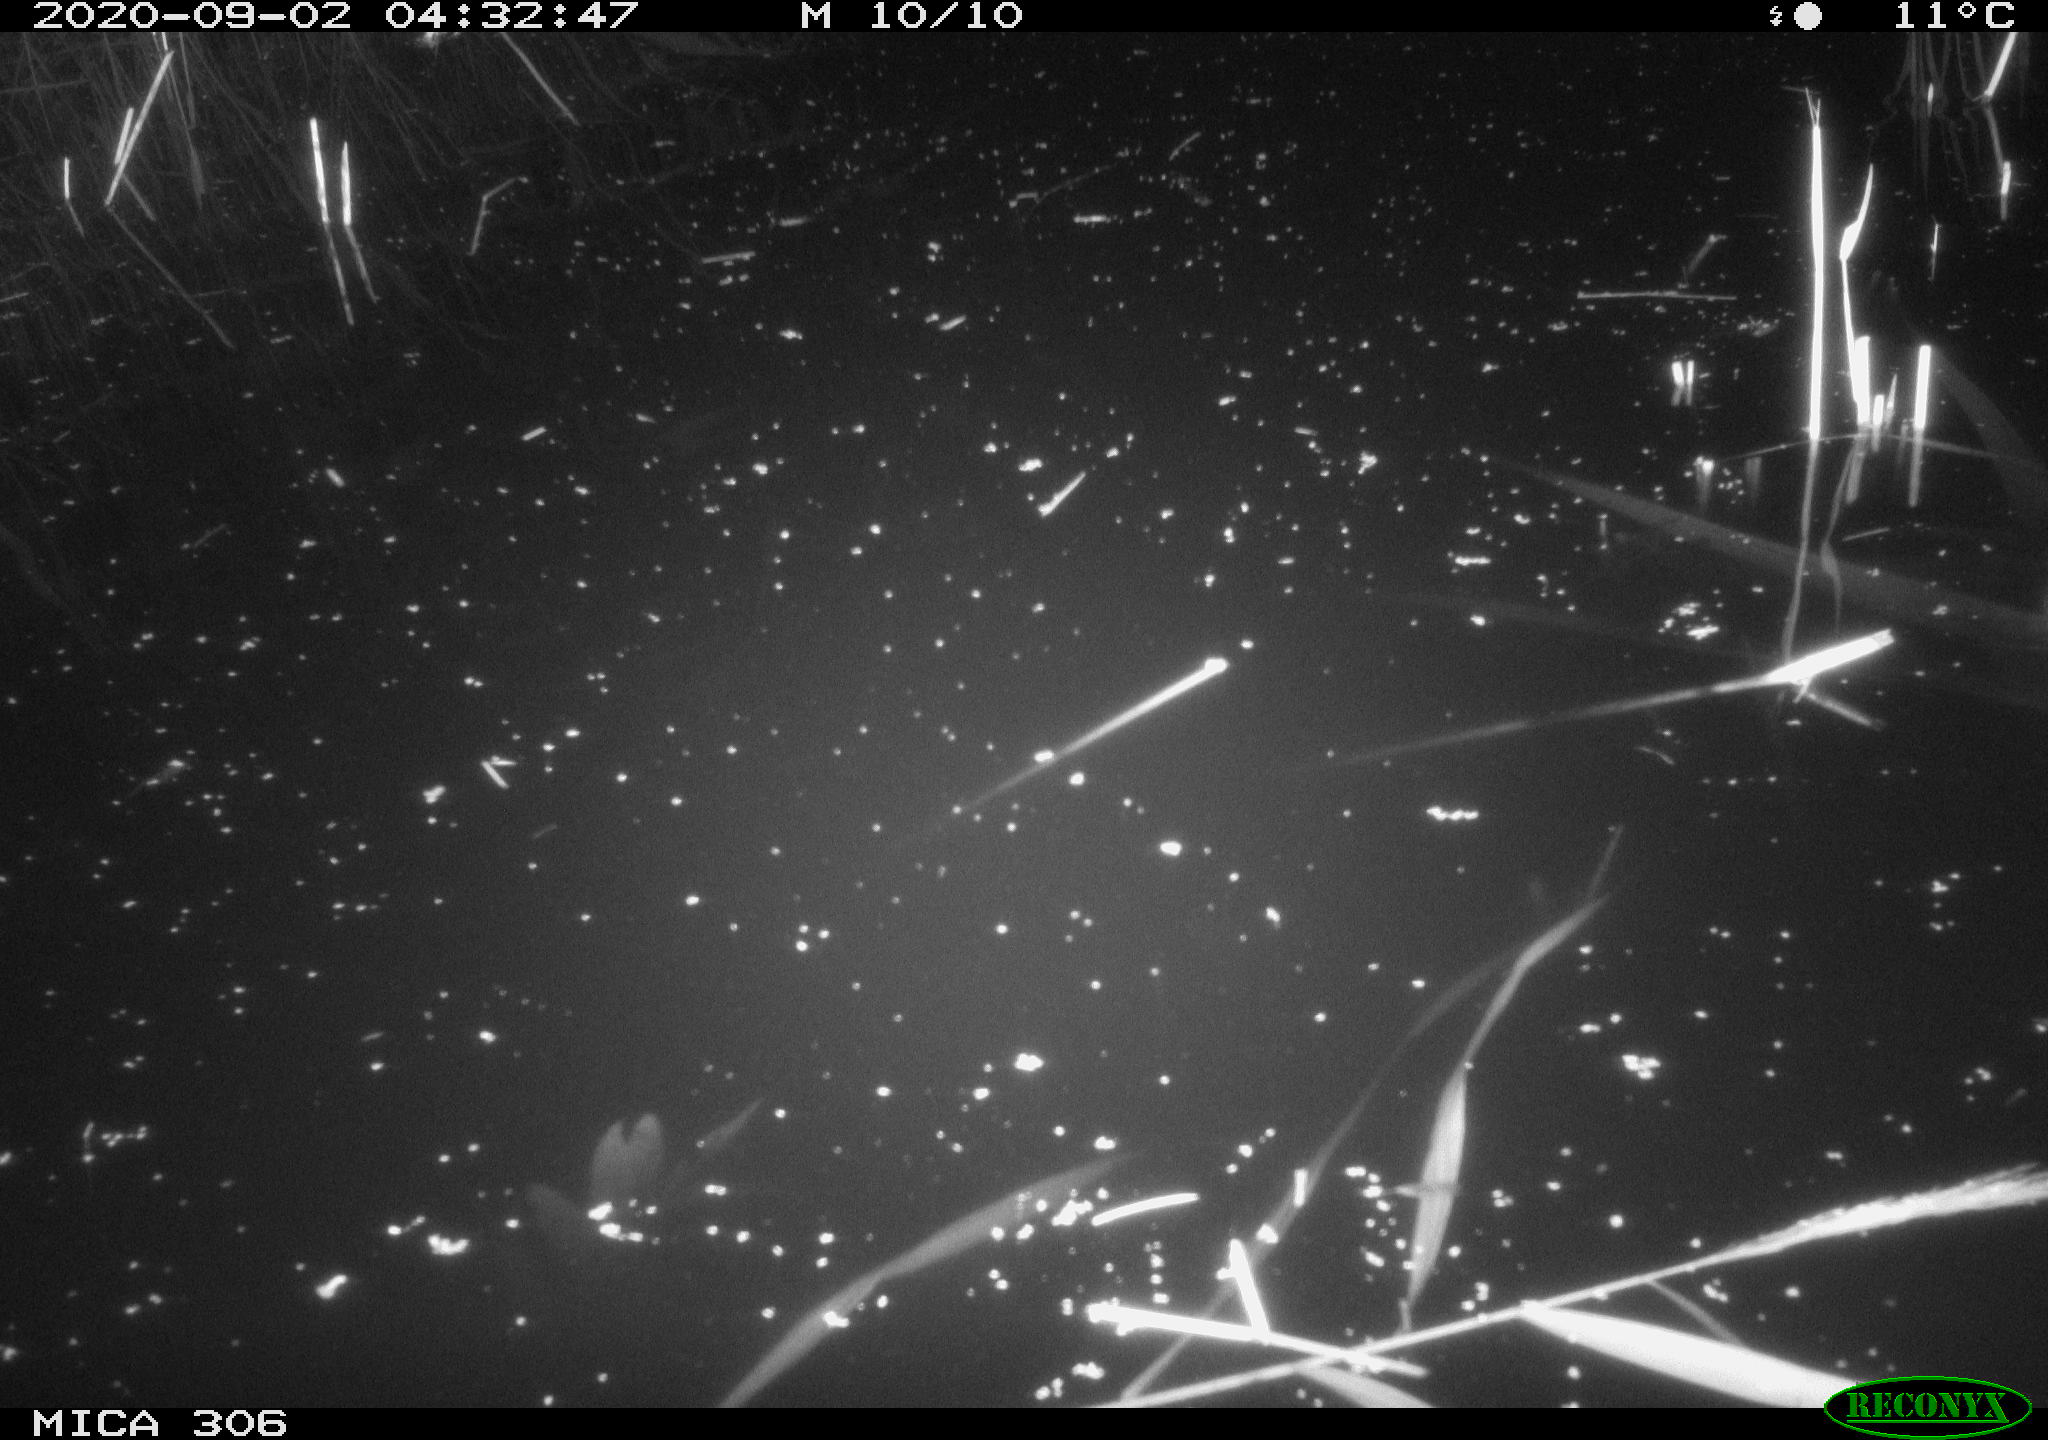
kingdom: Animalia
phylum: Chordata
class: Mammalia
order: Rodentia
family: Muridae
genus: Rattus
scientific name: Rattus norvegicus
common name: Brown rat
